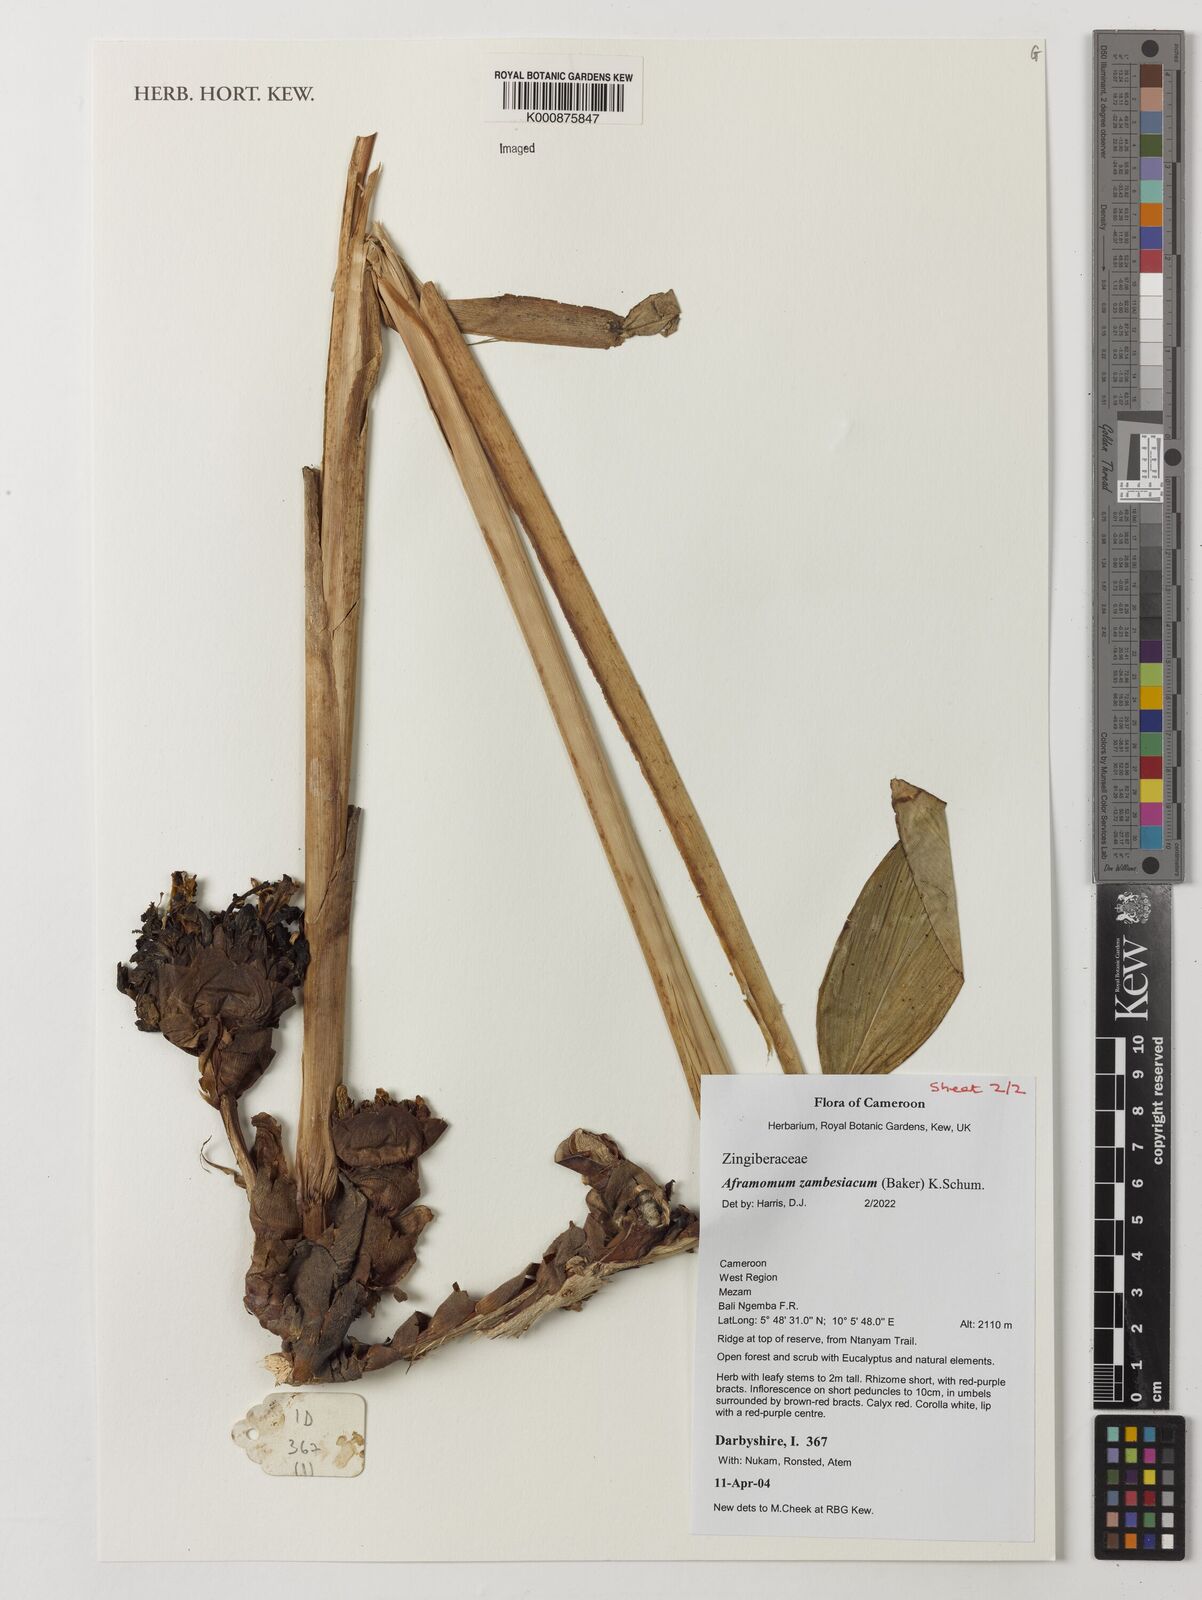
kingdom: Plantae
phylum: Tracheophyta
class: Liliopsida
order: Zingiberales
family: Zingiberaceae
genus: Aframomum
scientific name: Aframomum zambesiacum
